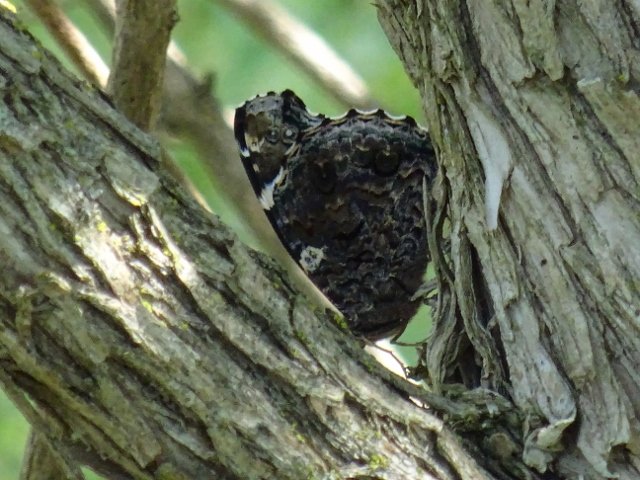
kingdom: Animalia
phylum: Arthropoda
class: Insecta
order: Lepidoptera
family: Nymphalidae
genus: Vanessa
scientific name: Vanessa atalanta
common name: Red Admiral
